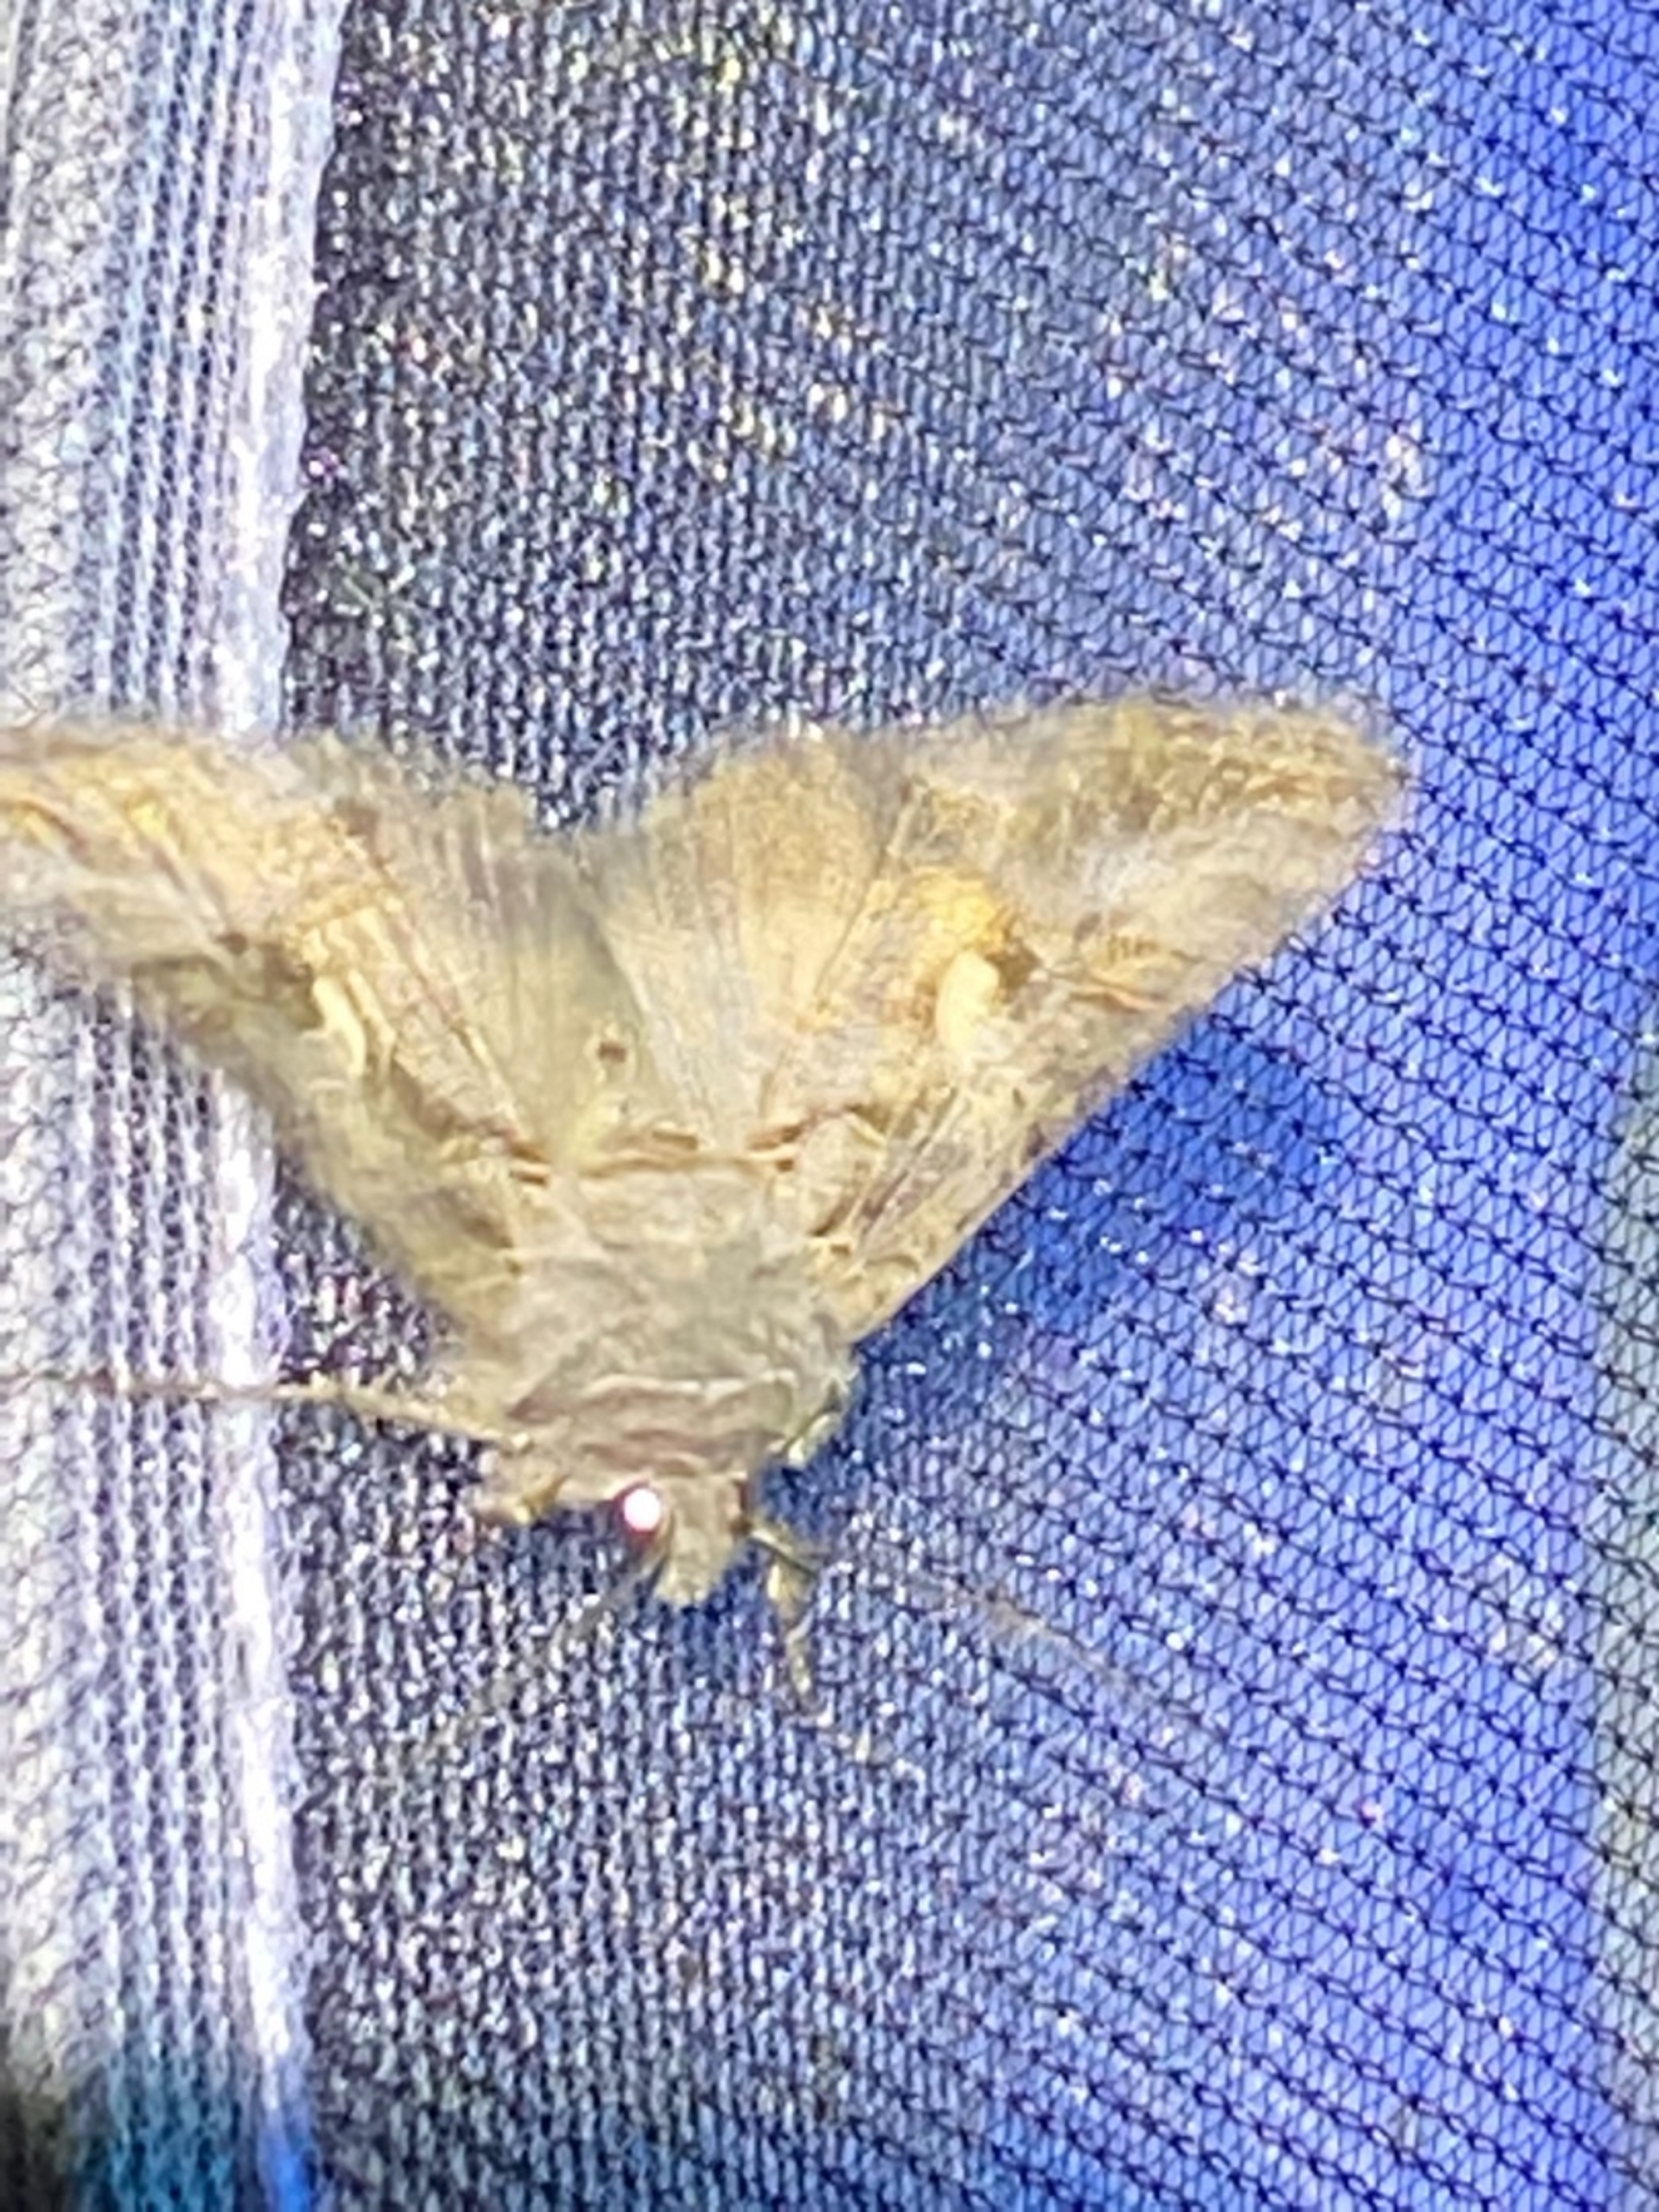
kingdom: Animalia
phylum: Arthropoda
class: Insecta
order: Lepidoptera
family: Noctuidae
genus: Autographa
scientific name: Autographa gamma
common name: Gammaugle
